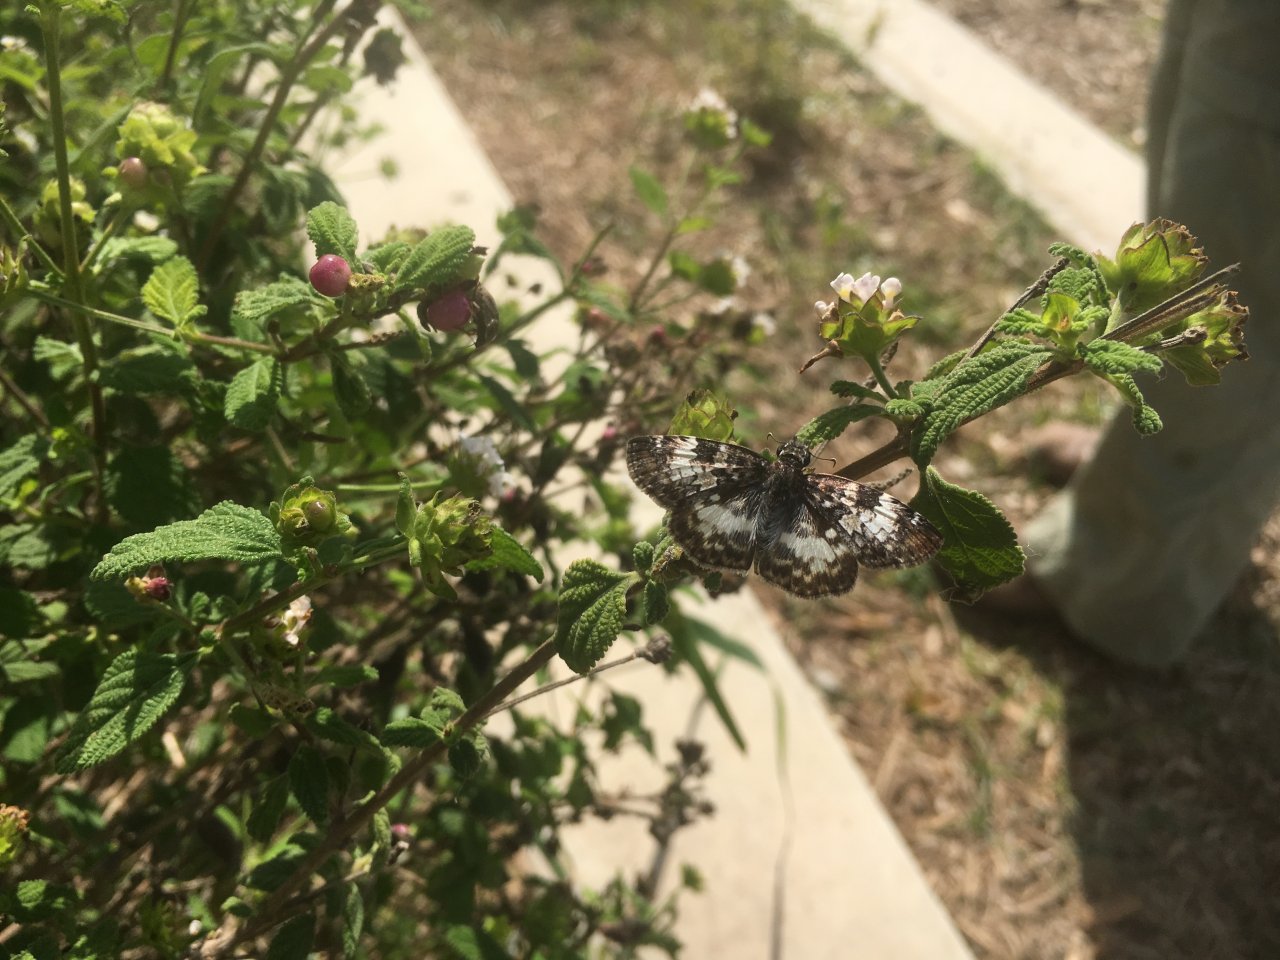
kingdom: Animalia
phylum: Arthropoda
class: Insecta
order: Lepidoptera
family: Hesperiidae
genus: Chiomara
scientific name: Chiomara asychis
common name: White-patched Skipper
